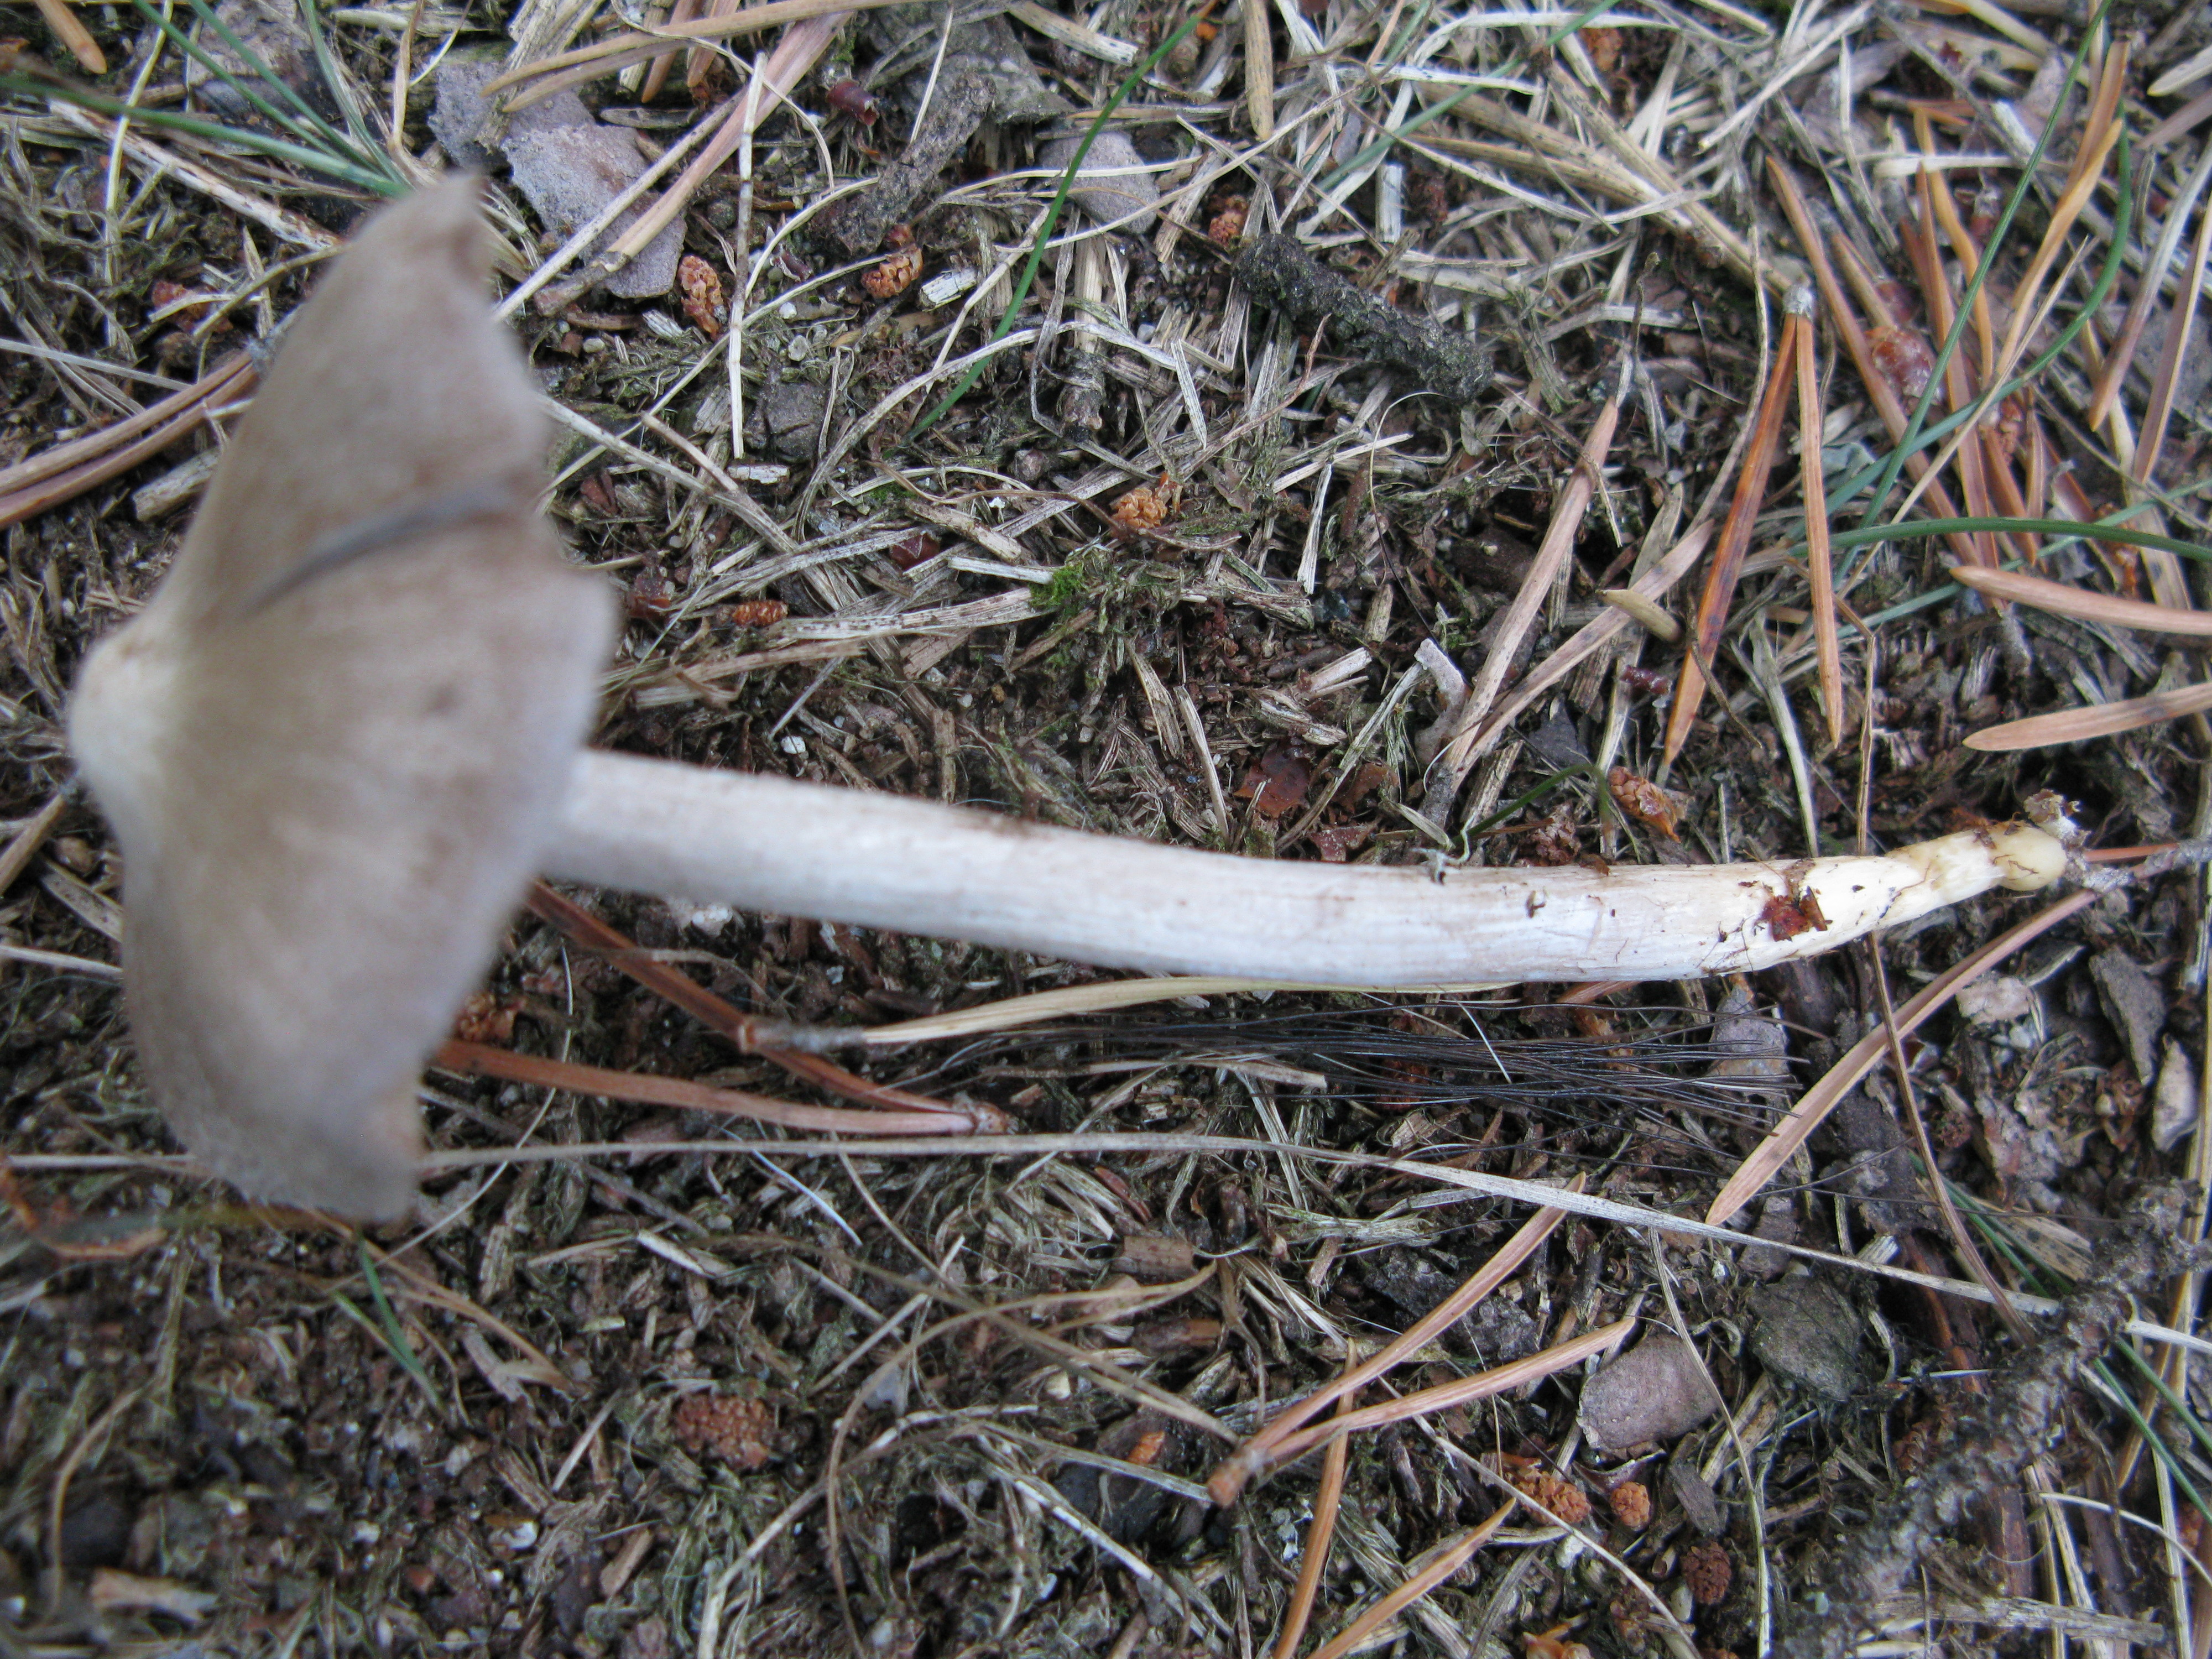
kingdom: Fungi
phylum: Basidiomycota
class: Agaricomycetes
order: Agaricales
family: Entolomataceae
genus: Entoloma
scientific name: Entoloma elodes
